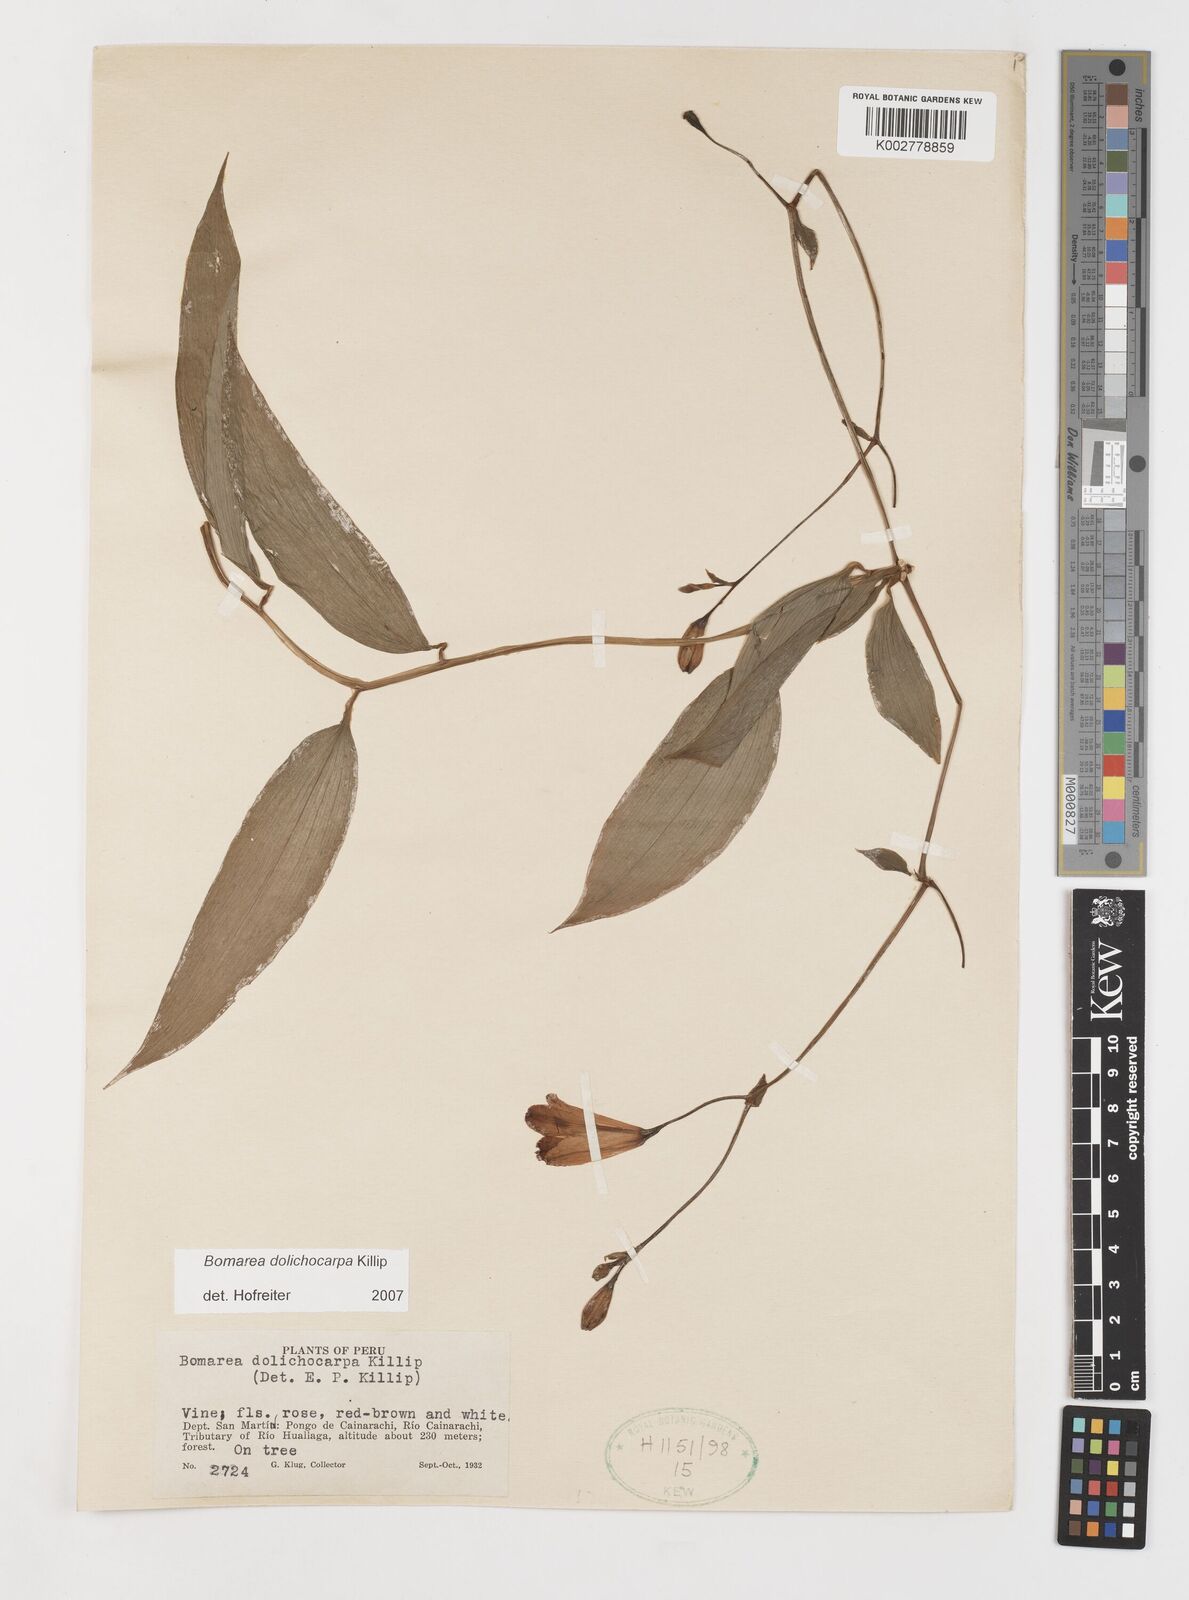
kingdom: Plantae
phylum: Tracheophyta
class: Liliopsida
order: Liliales
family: Alstroemeriaceae
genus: Bomarea
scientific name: Bomarea dolichocarpa
